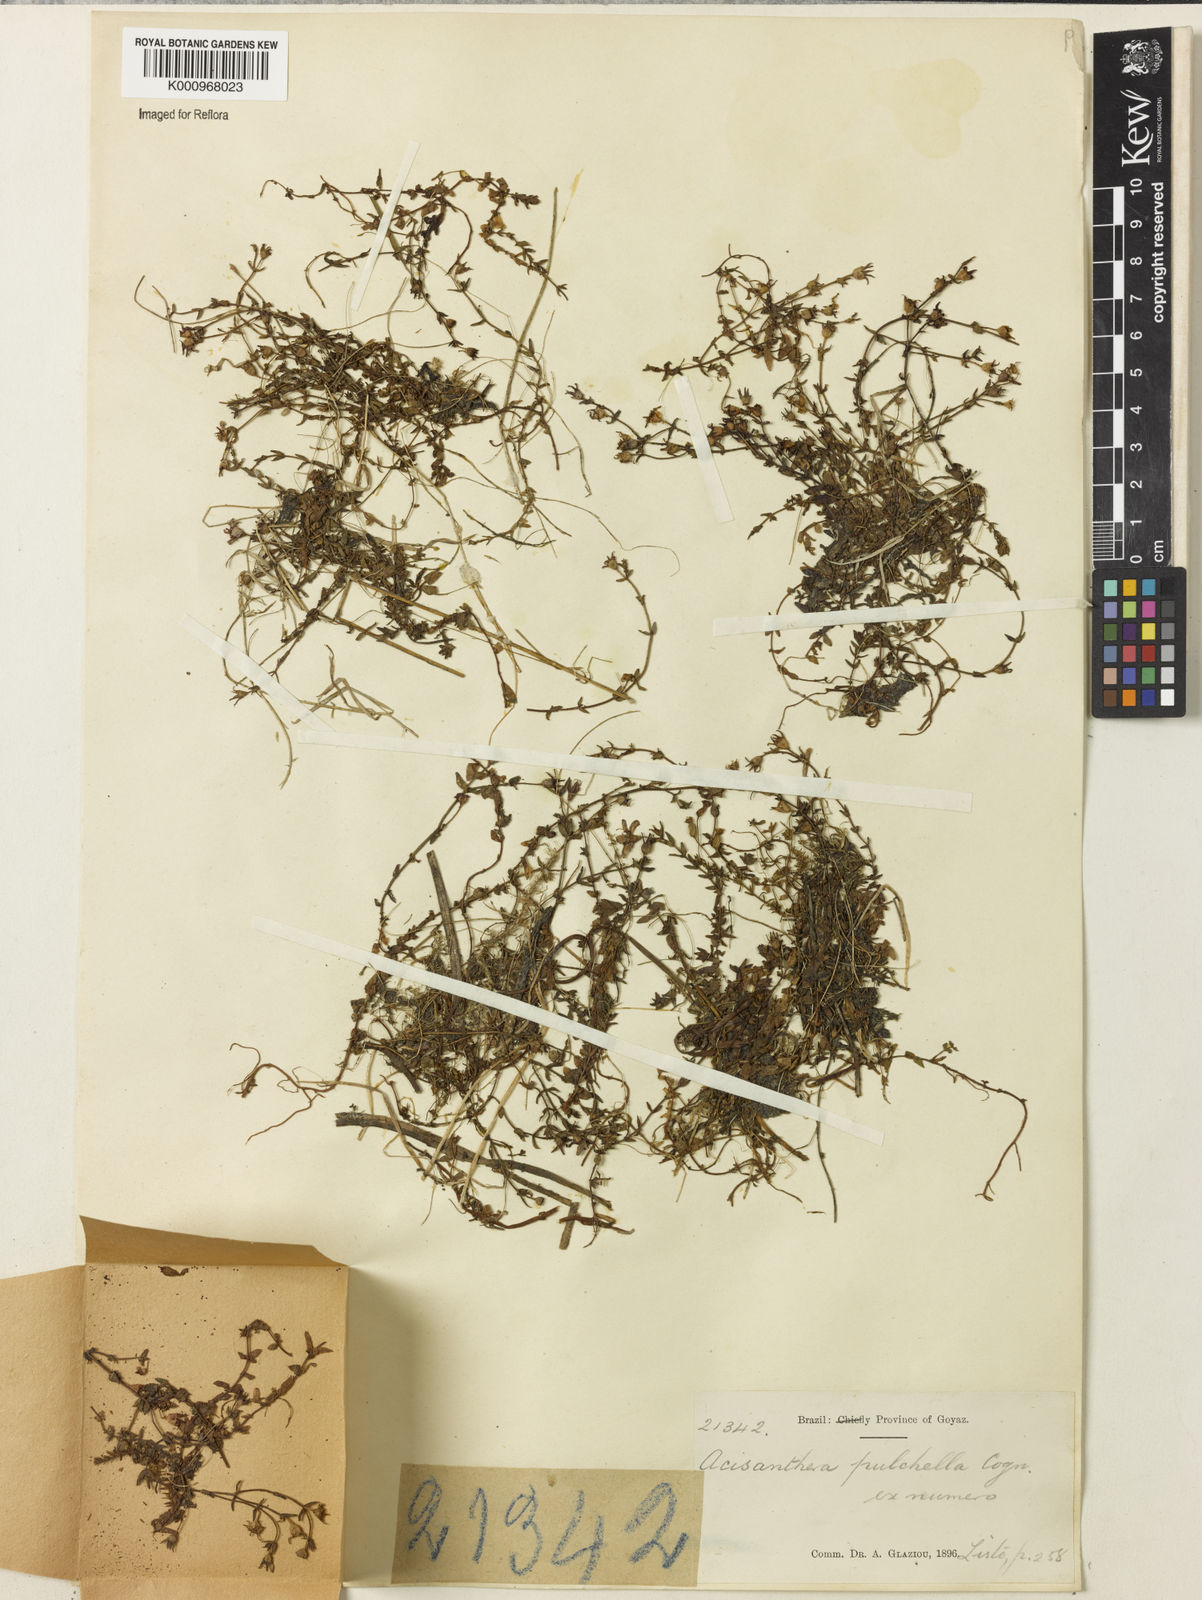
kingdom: Plantae
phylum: Tracheophyta
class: Magnoliopsida
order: Myrtales
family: Melastomataceae
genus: Acisanthera
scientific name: Acisanthera pulchella
